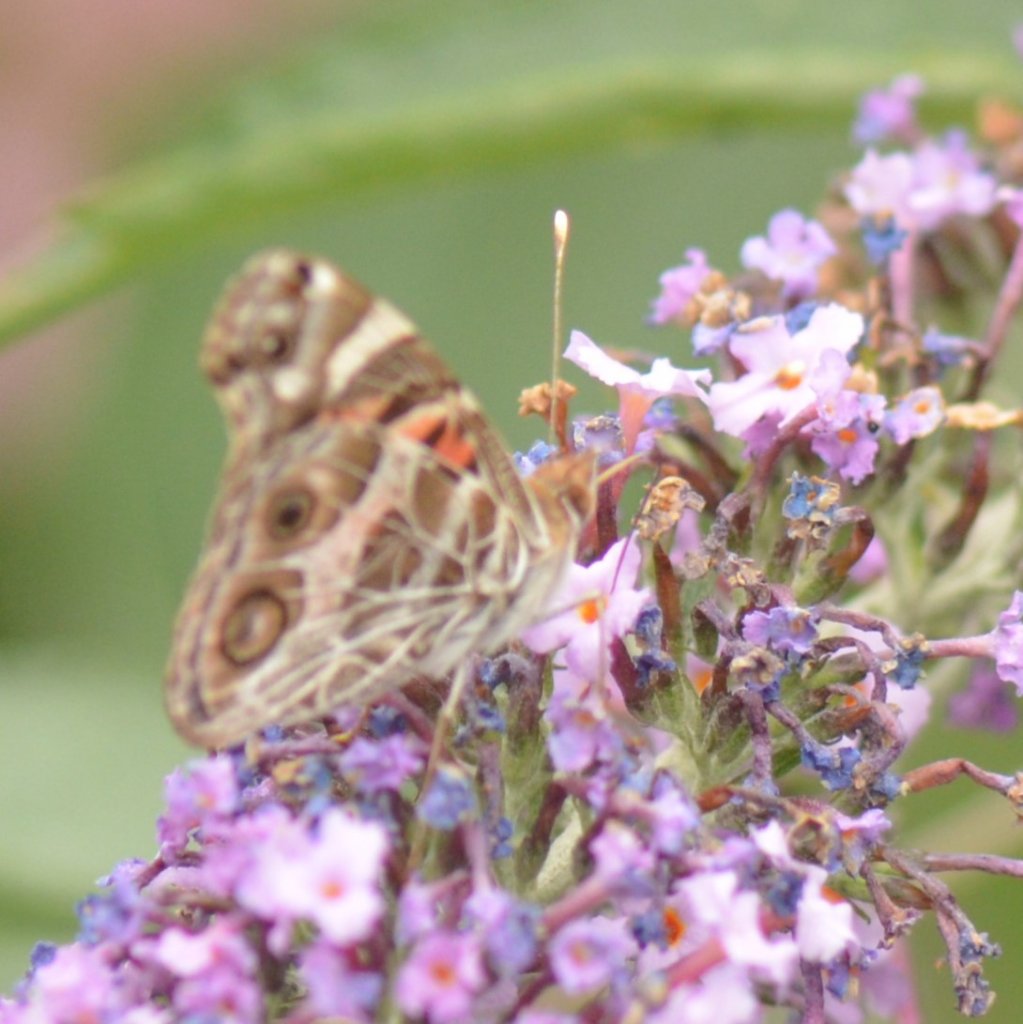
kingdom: Animalia
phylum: Arthropoda
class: Insecta
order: Lepidoptera
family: Nymphalidae
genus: Vanessa
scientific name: Vanessa virginiensis
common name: American Lady
